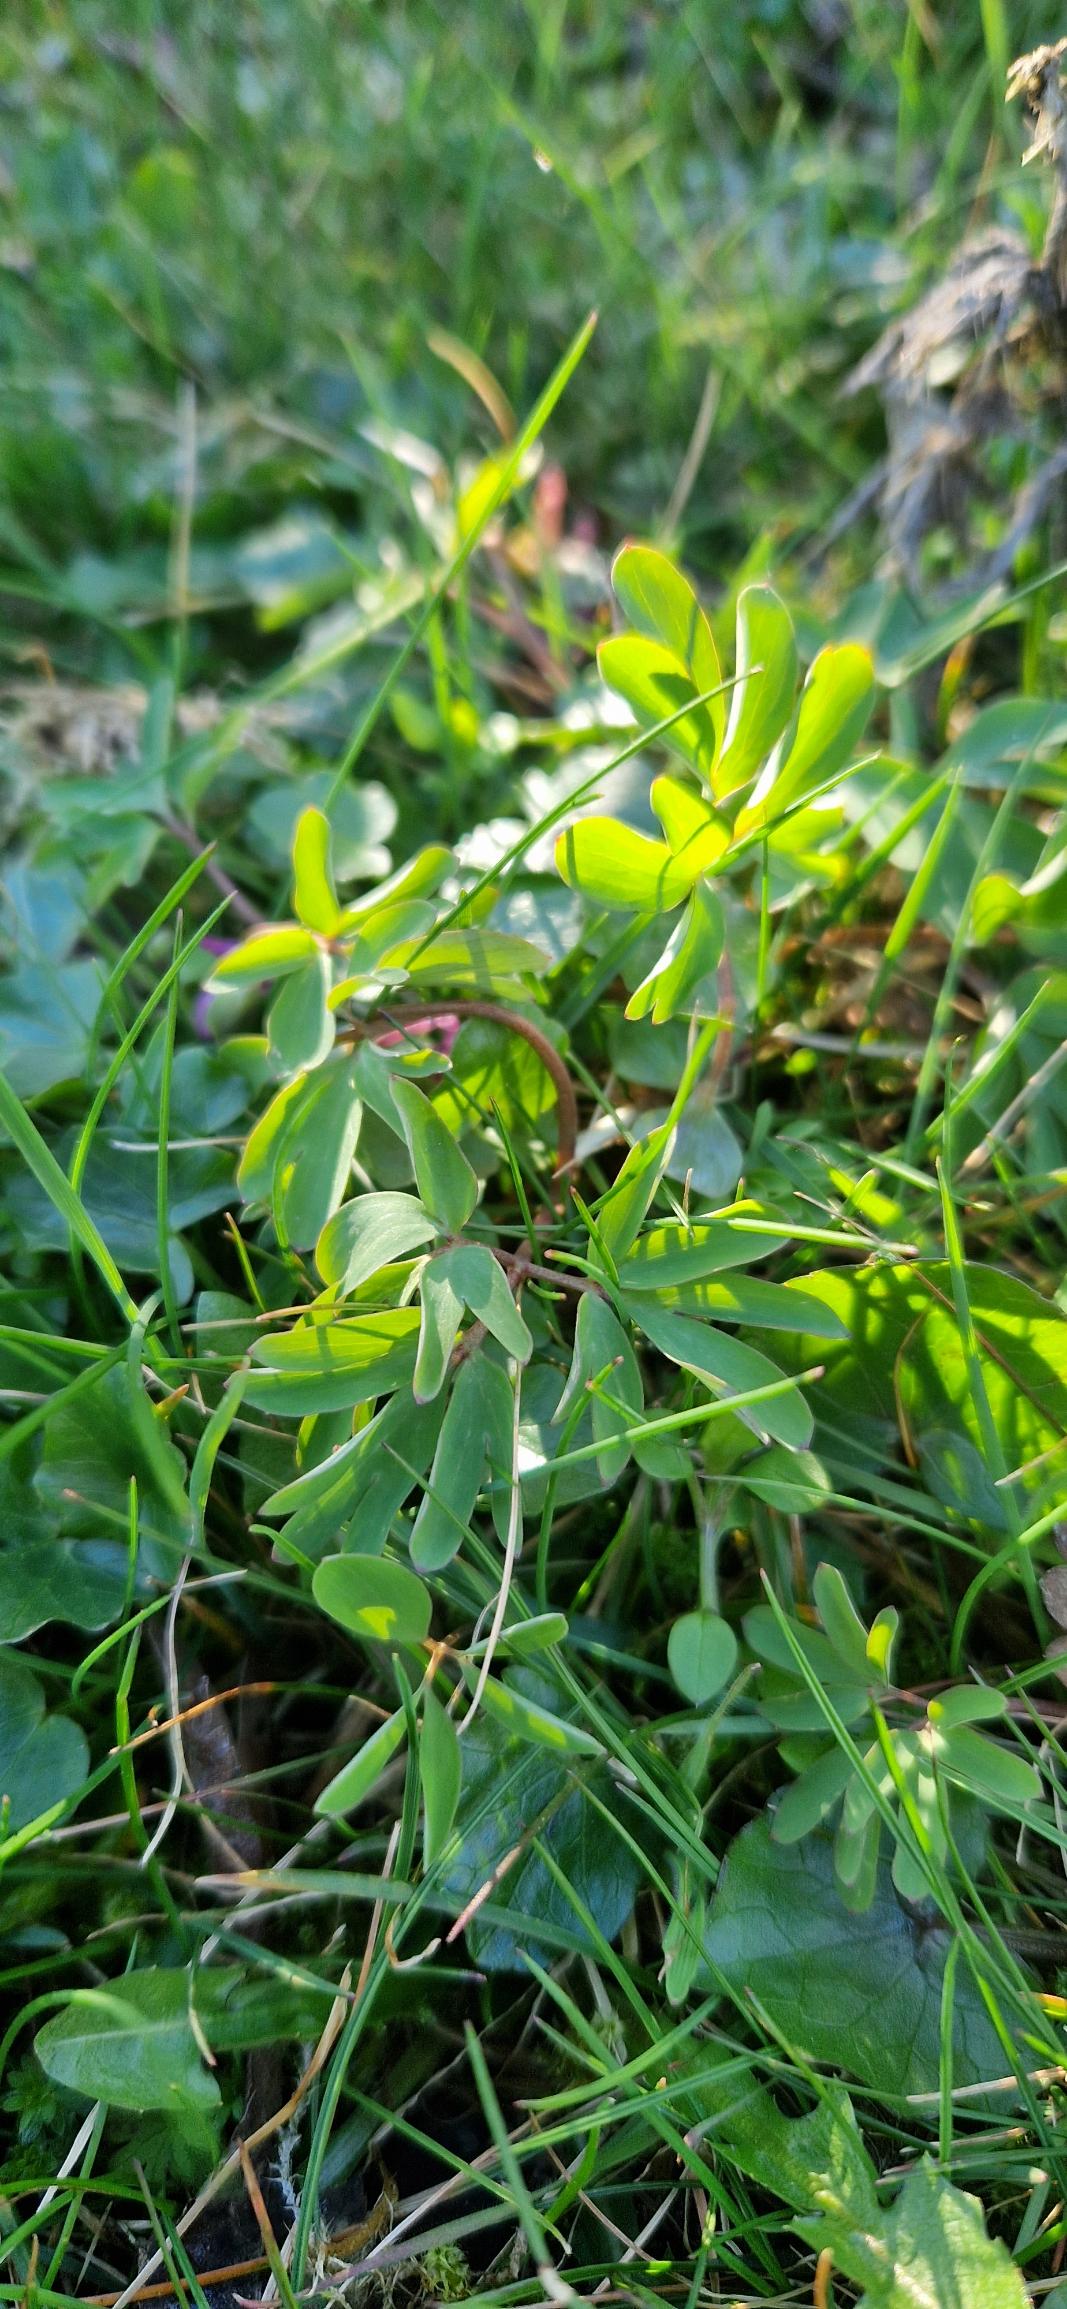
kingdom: Plantae
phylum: Tracheophyta
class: Magnoliopsida
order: Ranunculales
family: Papaveraceae
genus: Corydalis
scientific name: Corydalis intermedia
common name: Liden lærkespore
